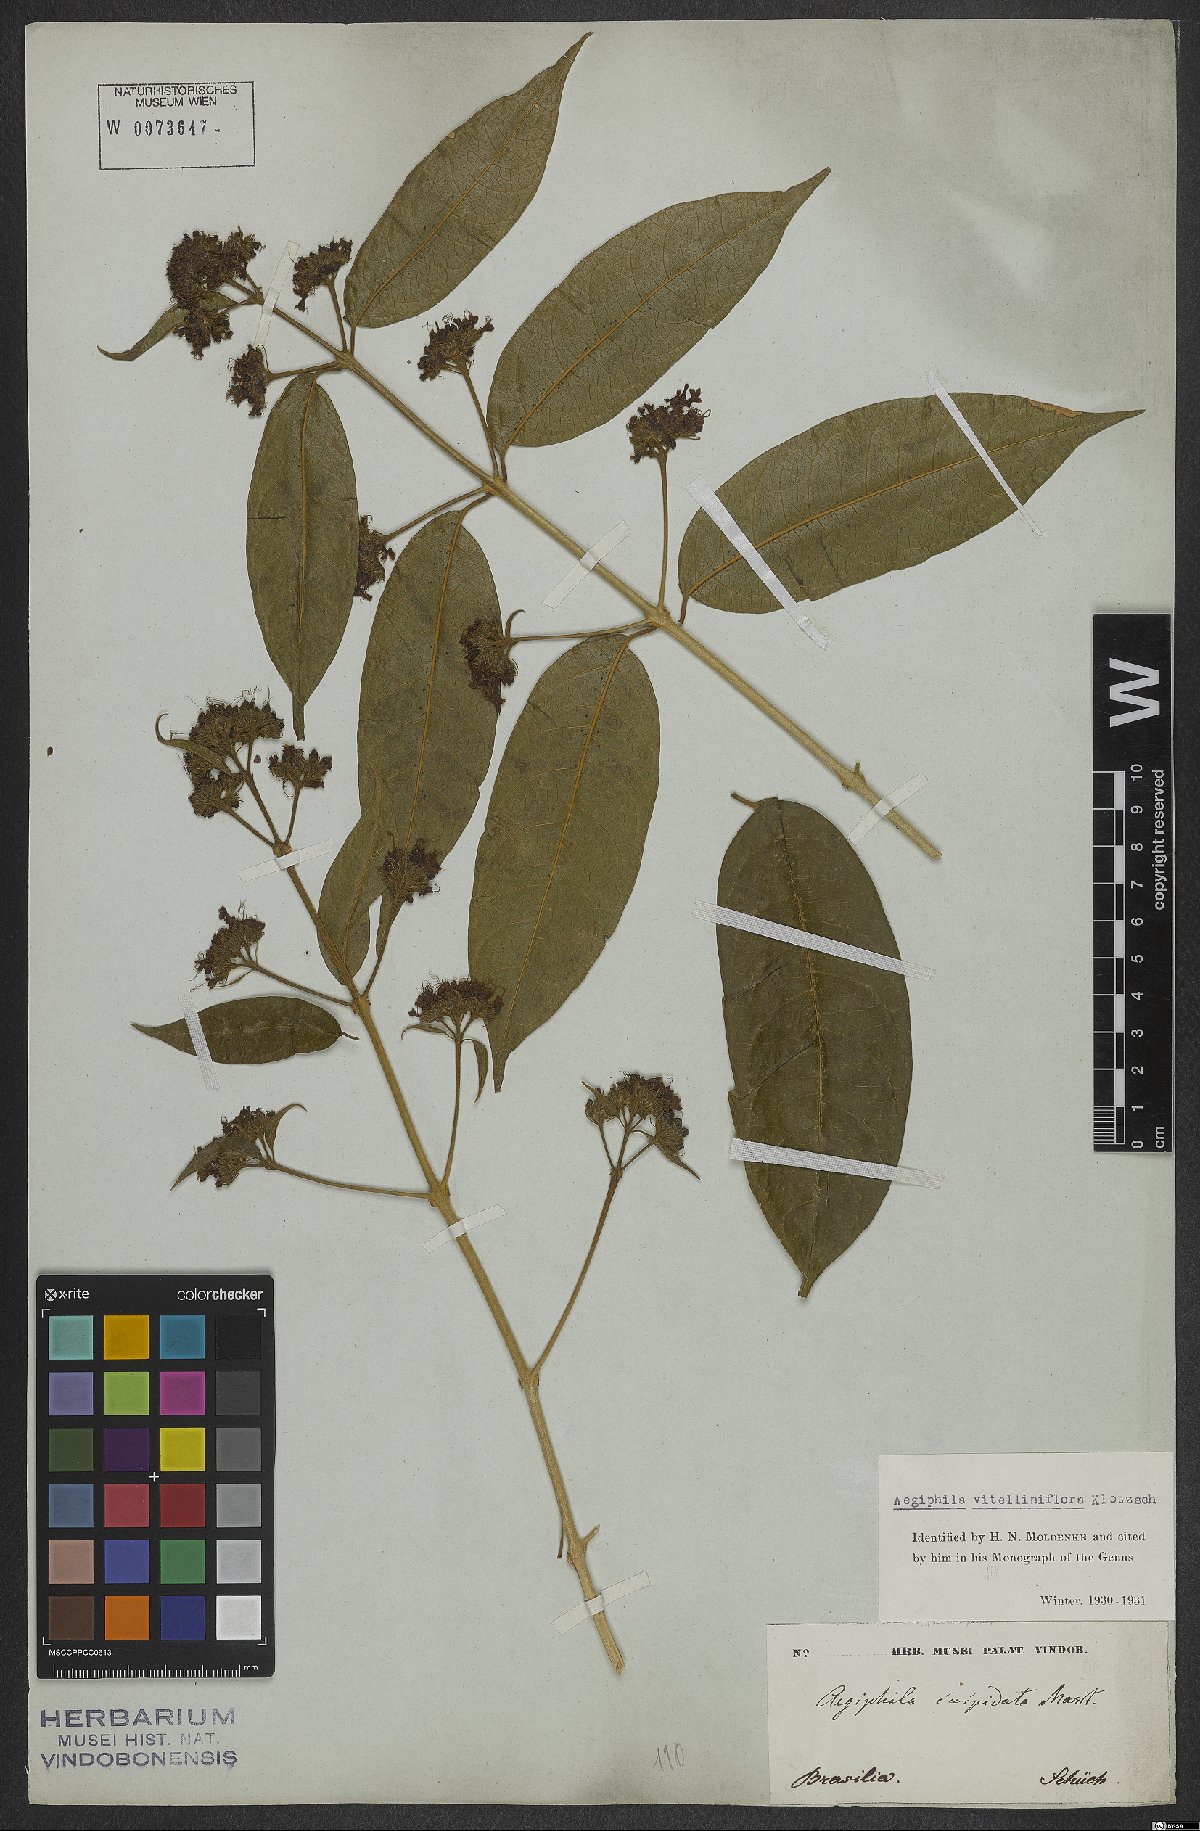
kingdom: Plantae
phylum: Tracheophyta
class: Magnoliopsida
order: Lamiales
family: Lamiaceae
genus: Aegiphila
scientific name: Aegiphila vitelliniflora
